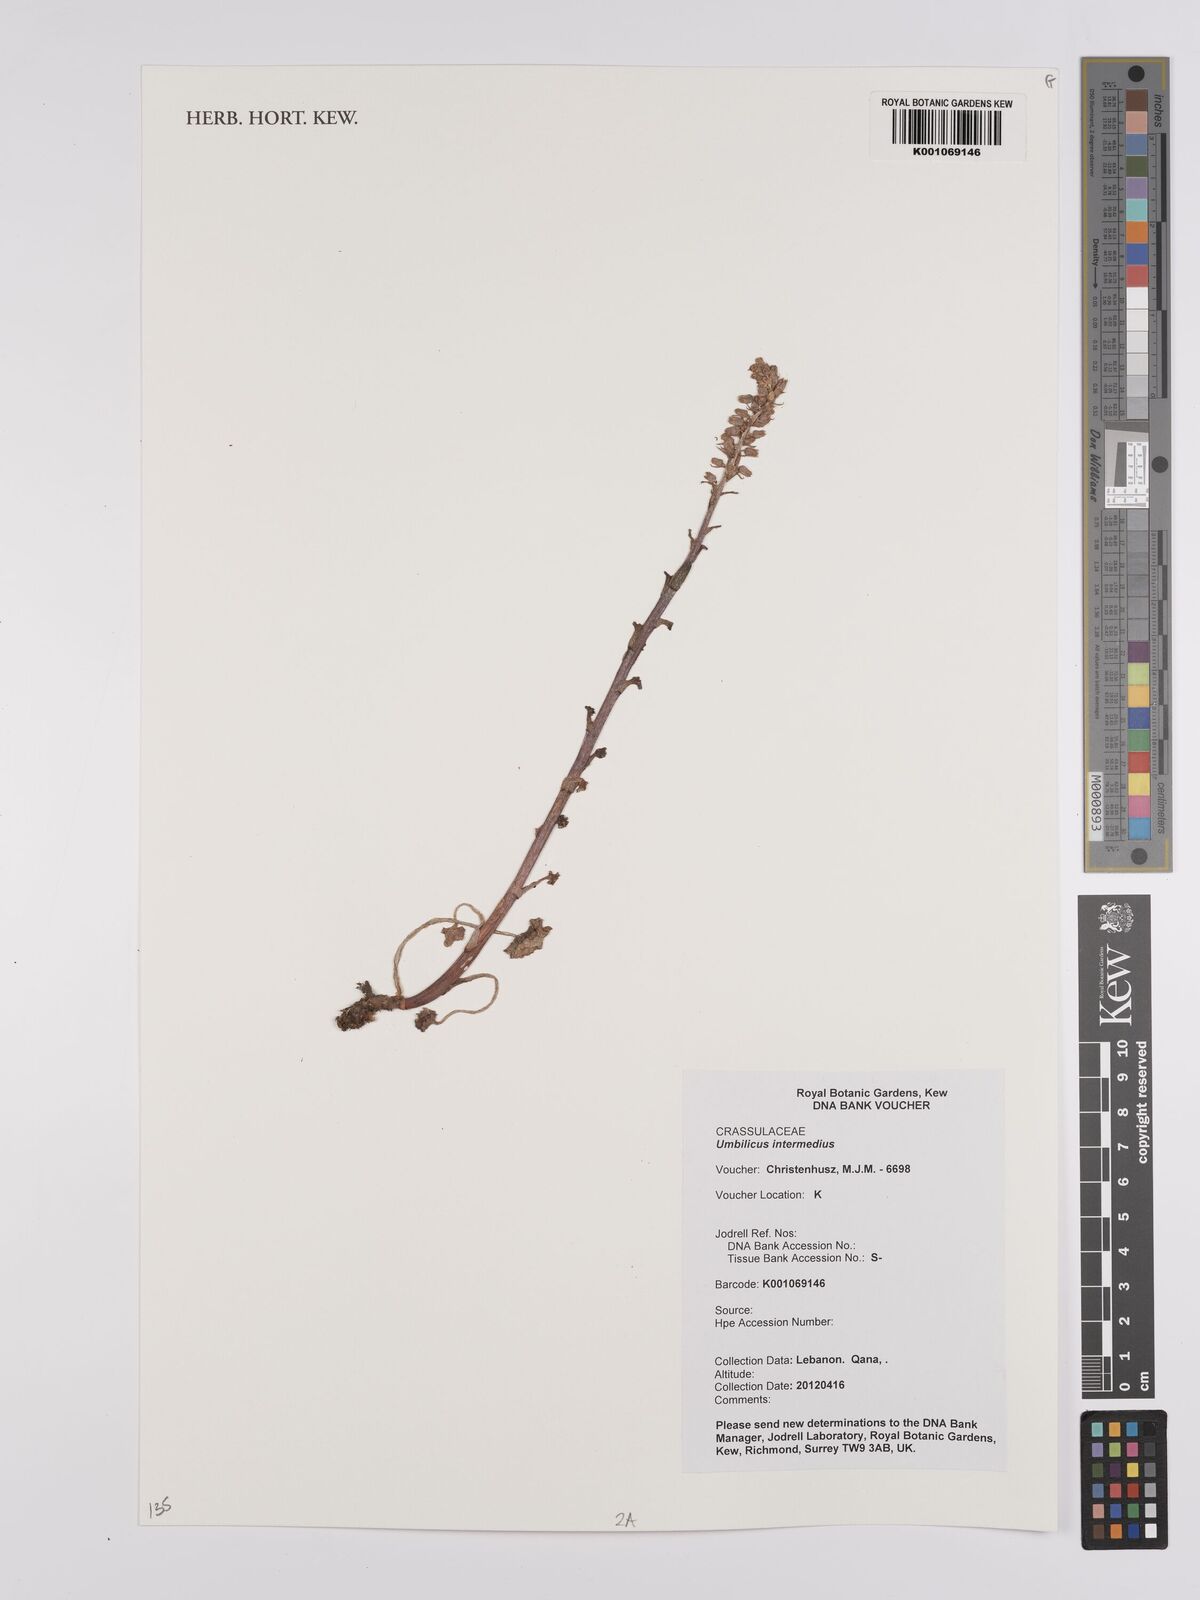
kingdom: Plantae
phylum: Tracheophyta
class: Magnoliopsida
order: Saxifragales
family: Crassulaceae
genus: Umbilicus
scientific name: Umbilicus horizontalis
